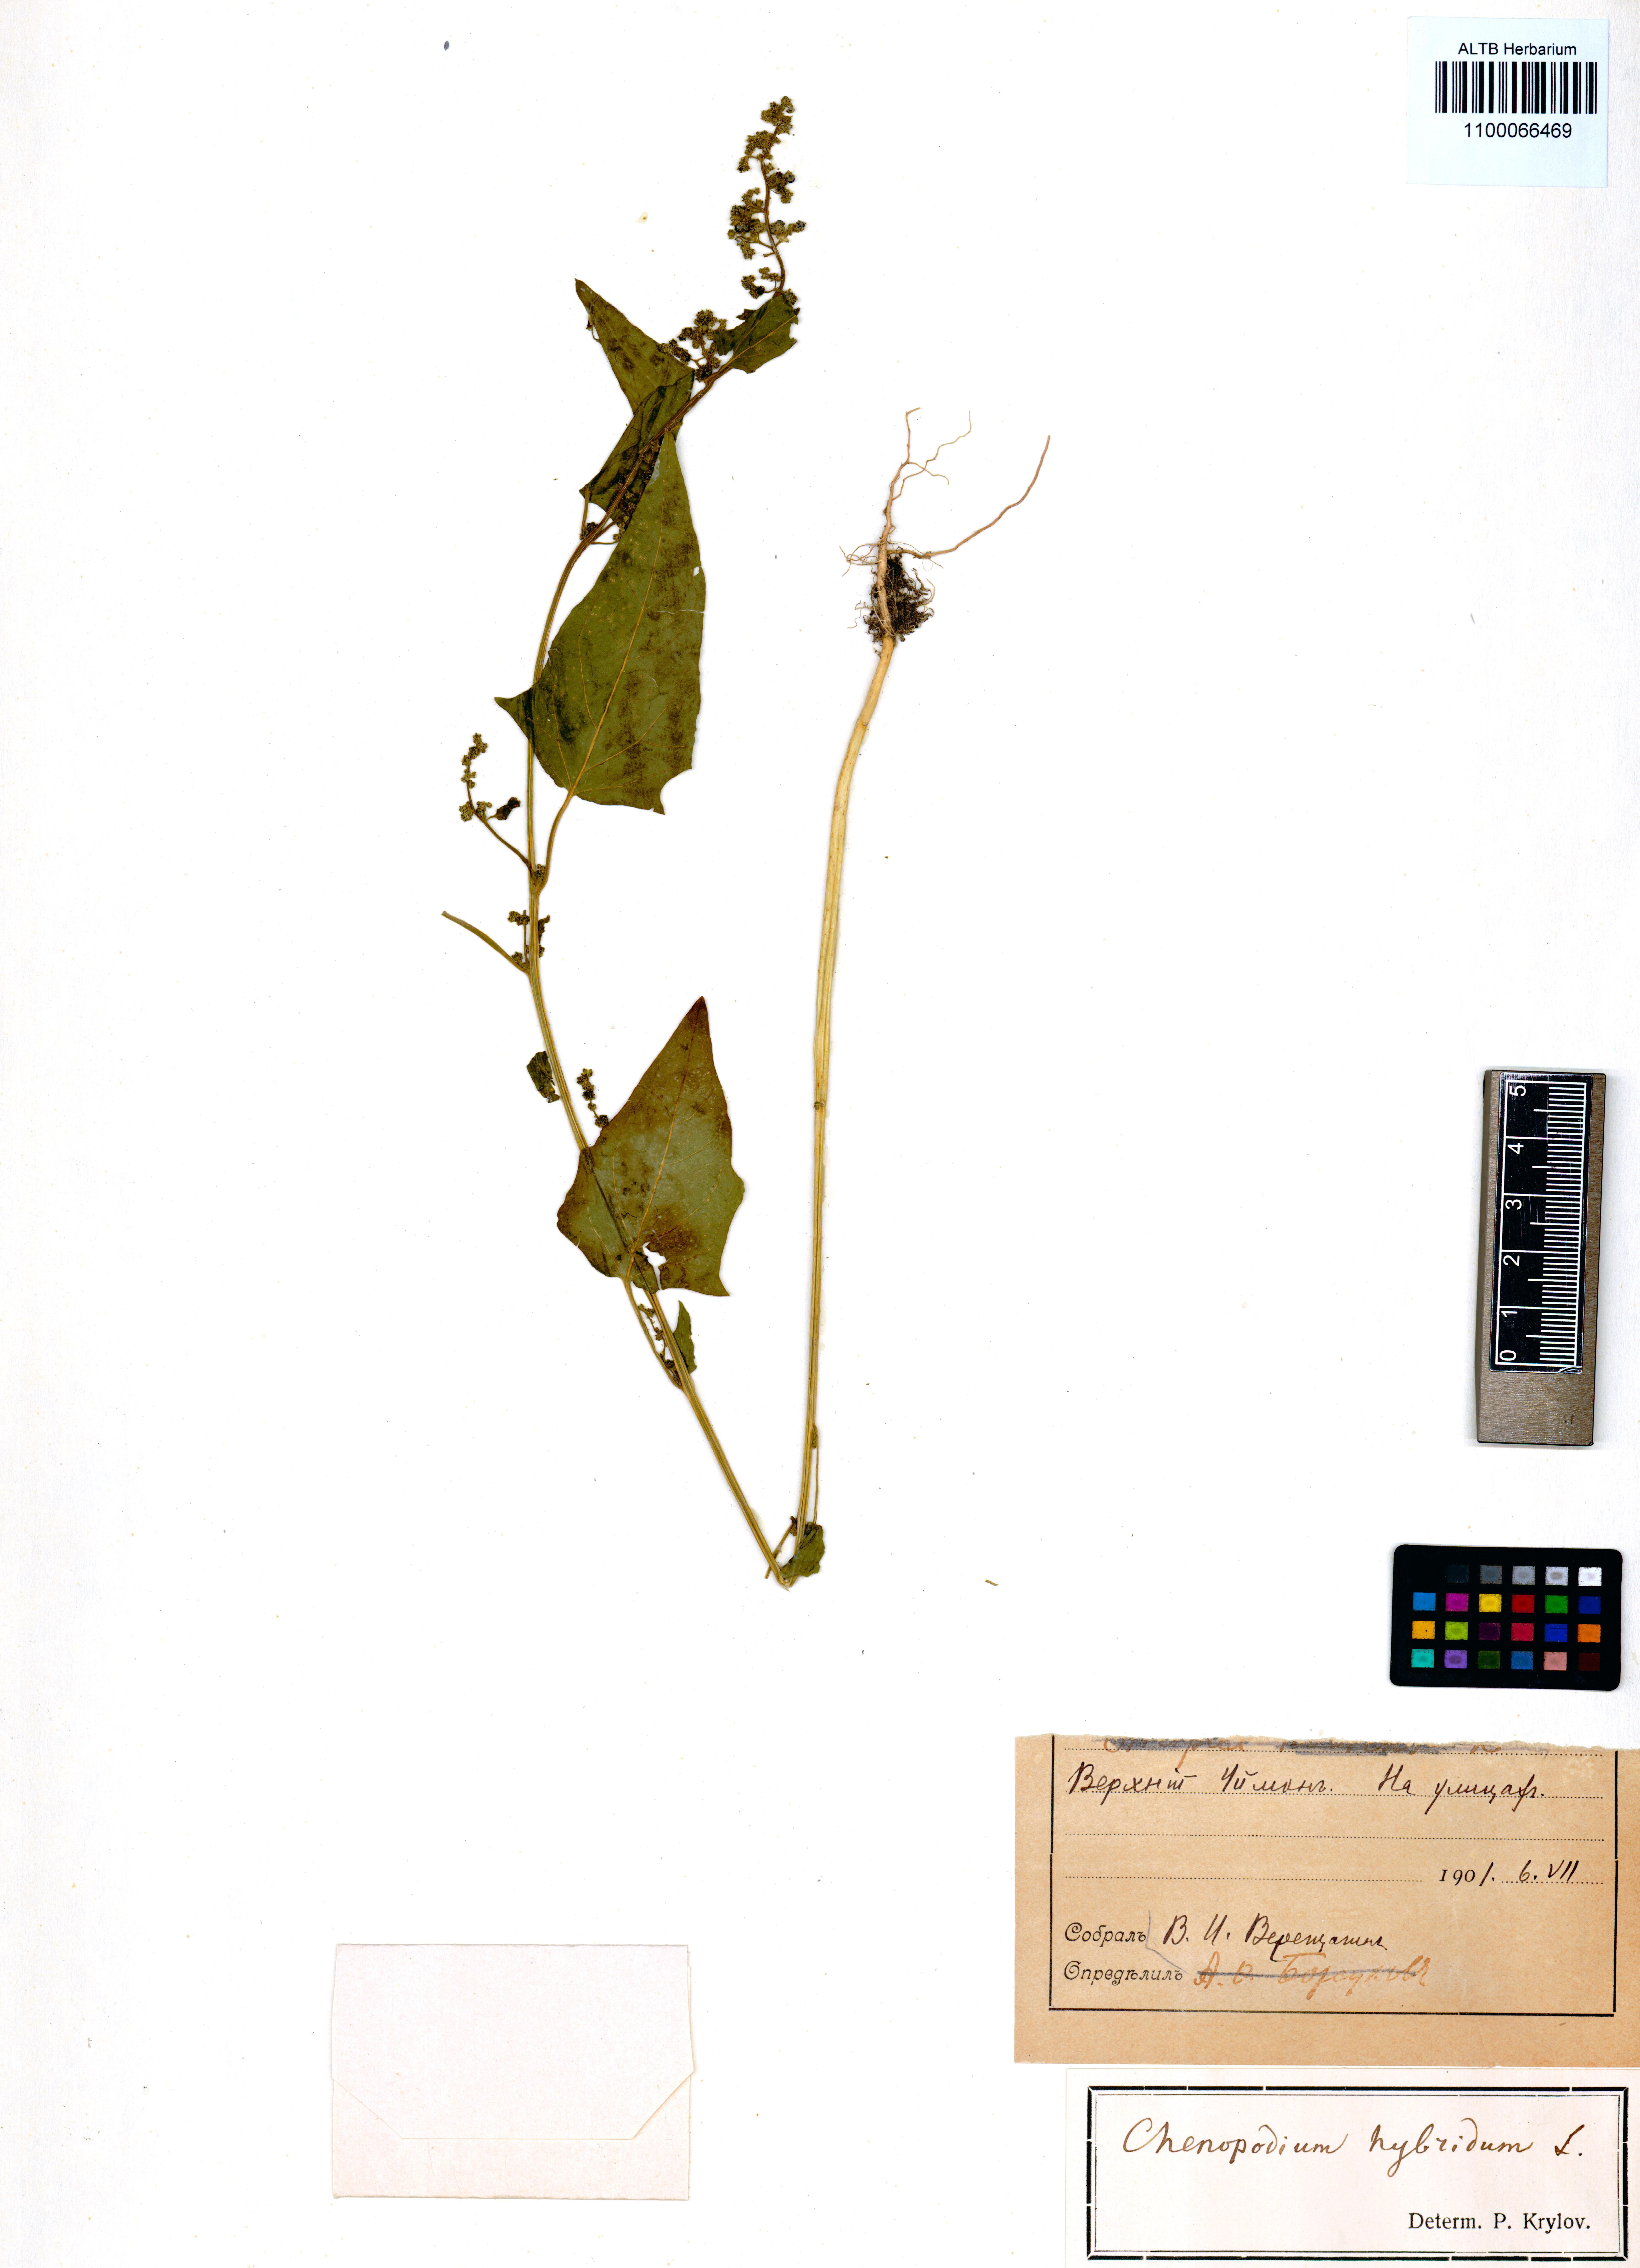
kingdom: Plantae
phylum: Tracheophyta
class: Magnoliopsida
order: Caryophyllales
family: Amaranthaceae
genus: Chenopodiastrum
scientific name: Chenopodiastrum hybridum
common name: Mapleleaf goosefoot
